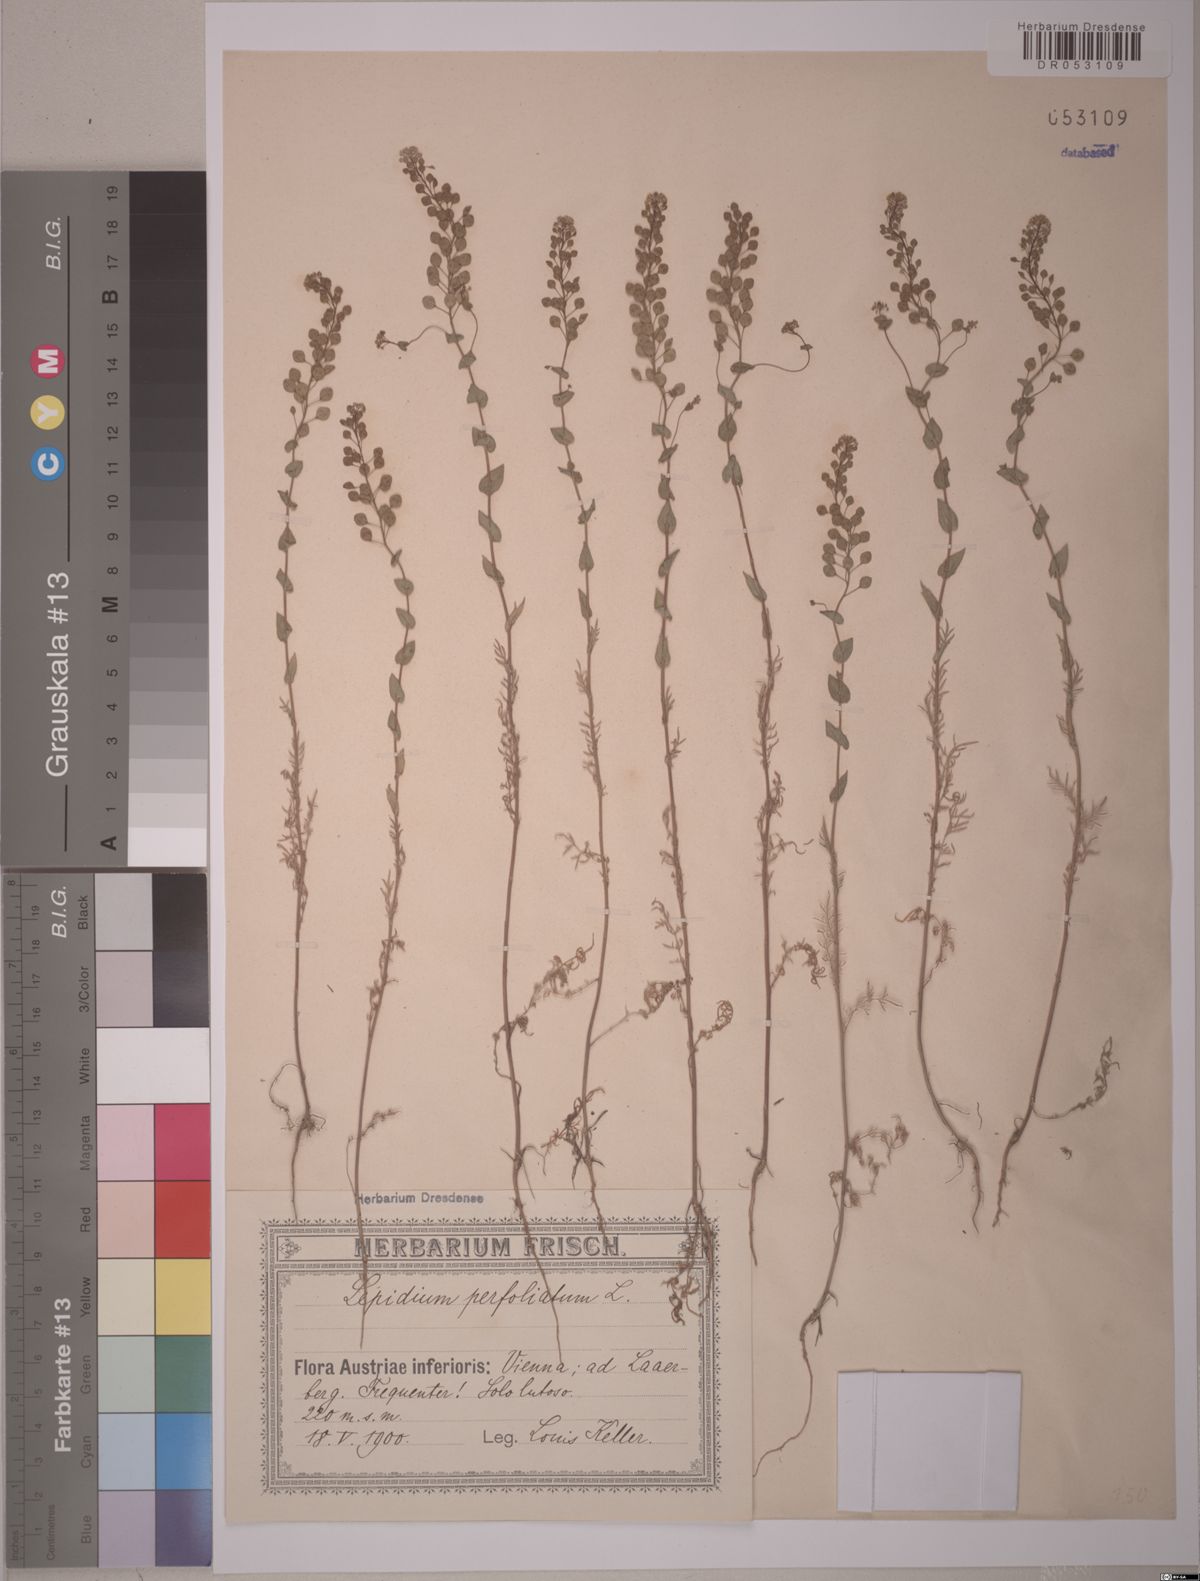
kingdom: Plantae
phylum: Tracheophyta
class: Magnoliopsida
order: Brassicales
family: Brassicaceae
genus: Lepidium
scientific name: Lepidium perfoliatum
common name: Perfoliate pepperwort
